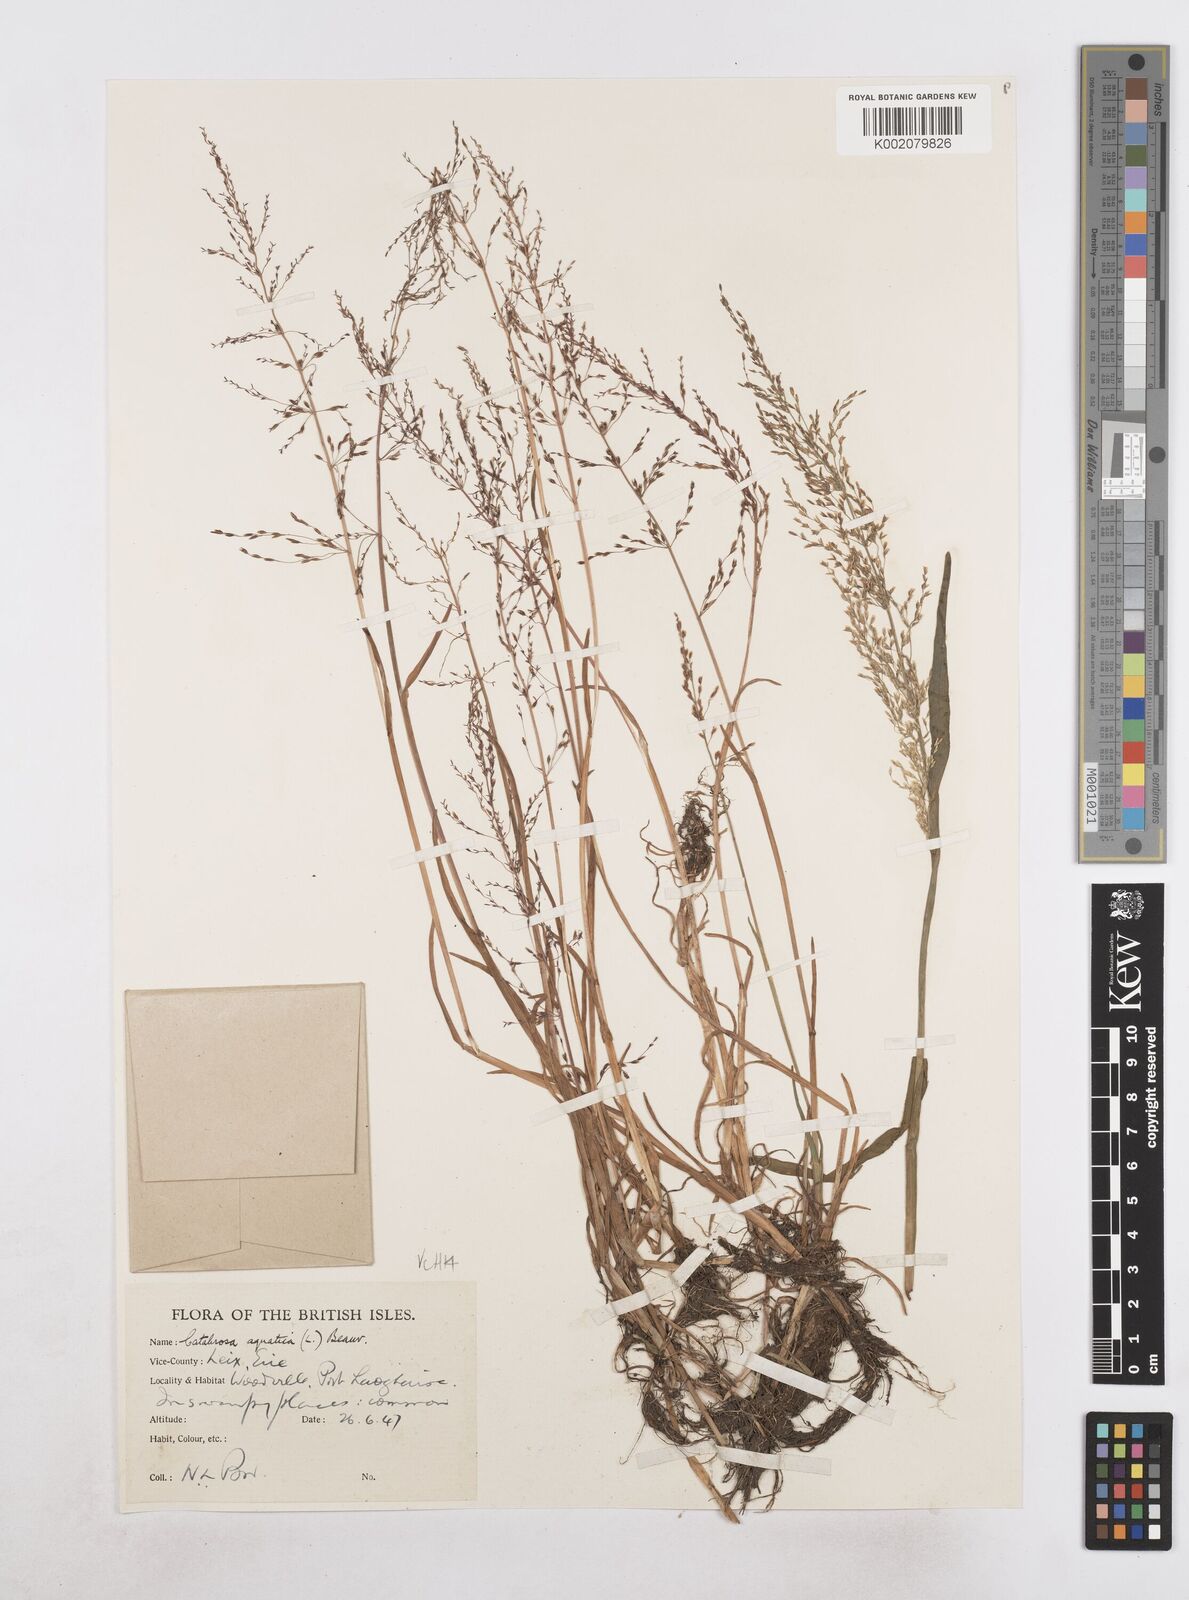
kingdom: Plantae
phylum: Tracheophyta
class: Liliopsida
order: Poales
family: Poaceae
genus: Catabrosa
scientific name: Catabrosa aquatica
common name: Whorl-grass
